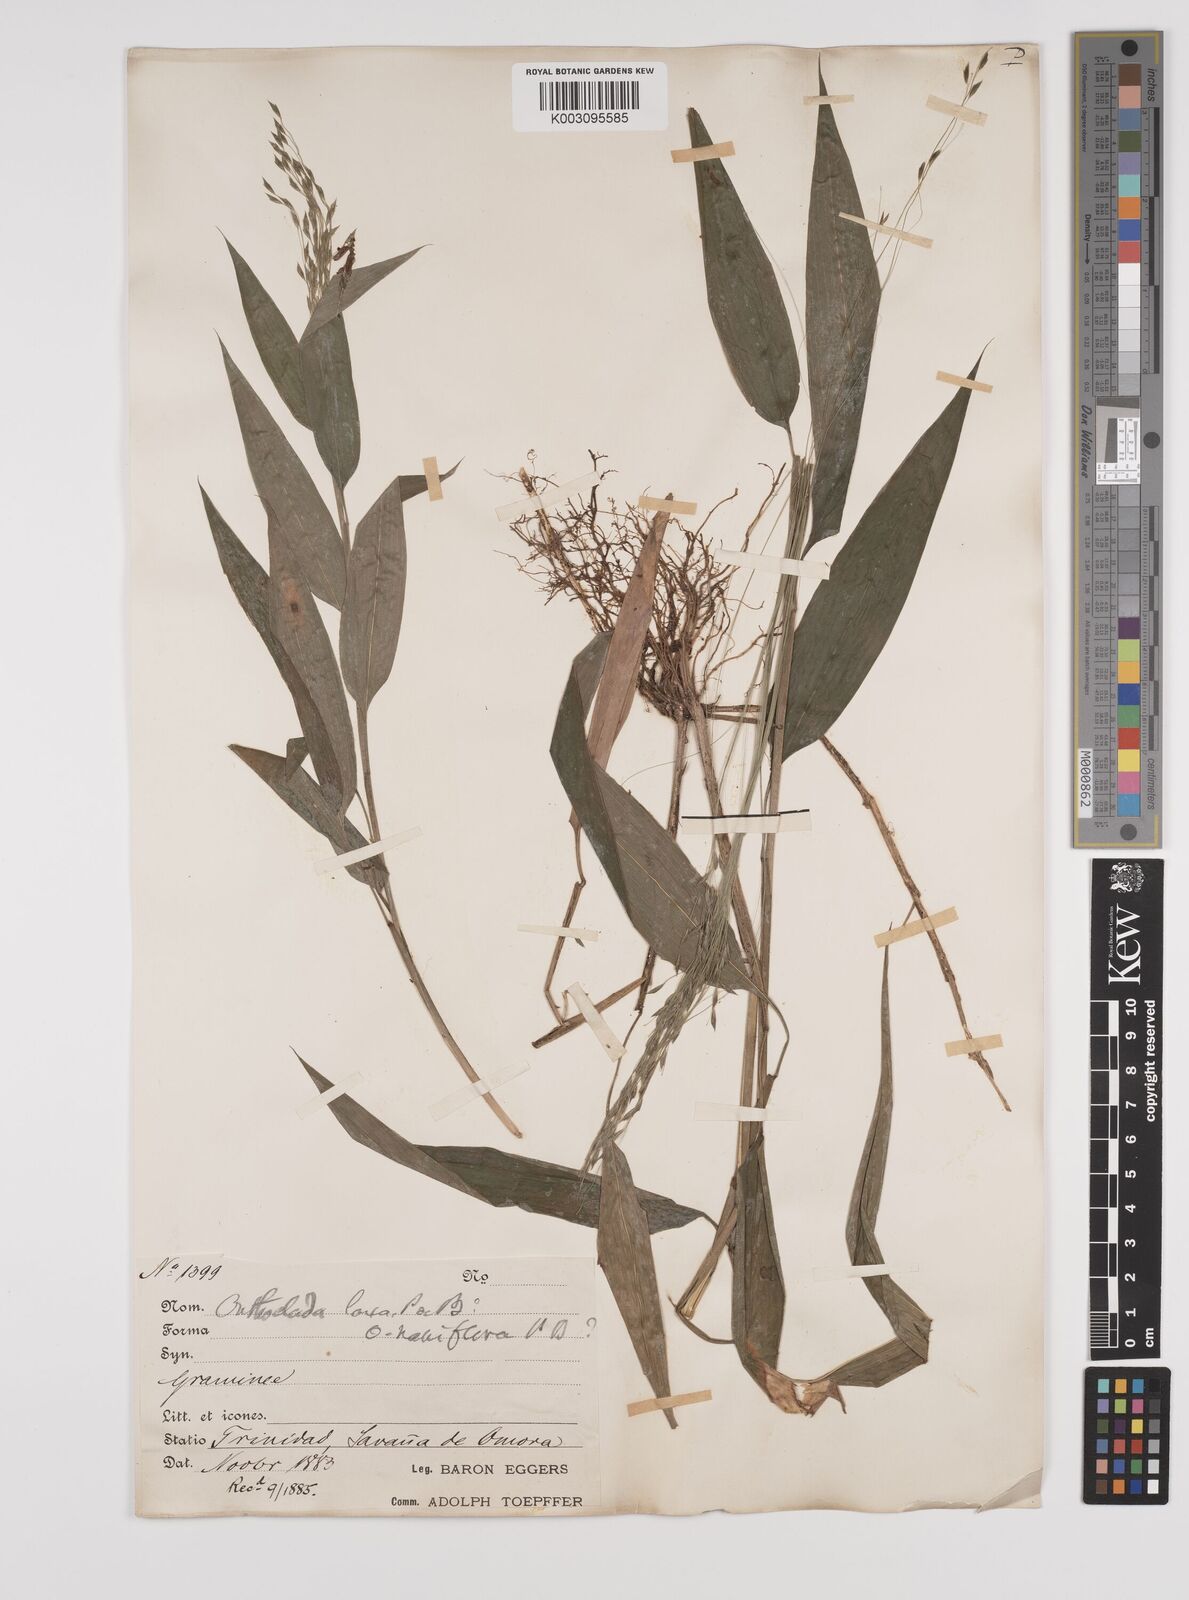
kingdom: Plantae
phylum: Tracheophyta
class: Liliopsida
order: Poales
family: Poaceae
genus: Orthoclada
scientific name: Orthoclada laxa
